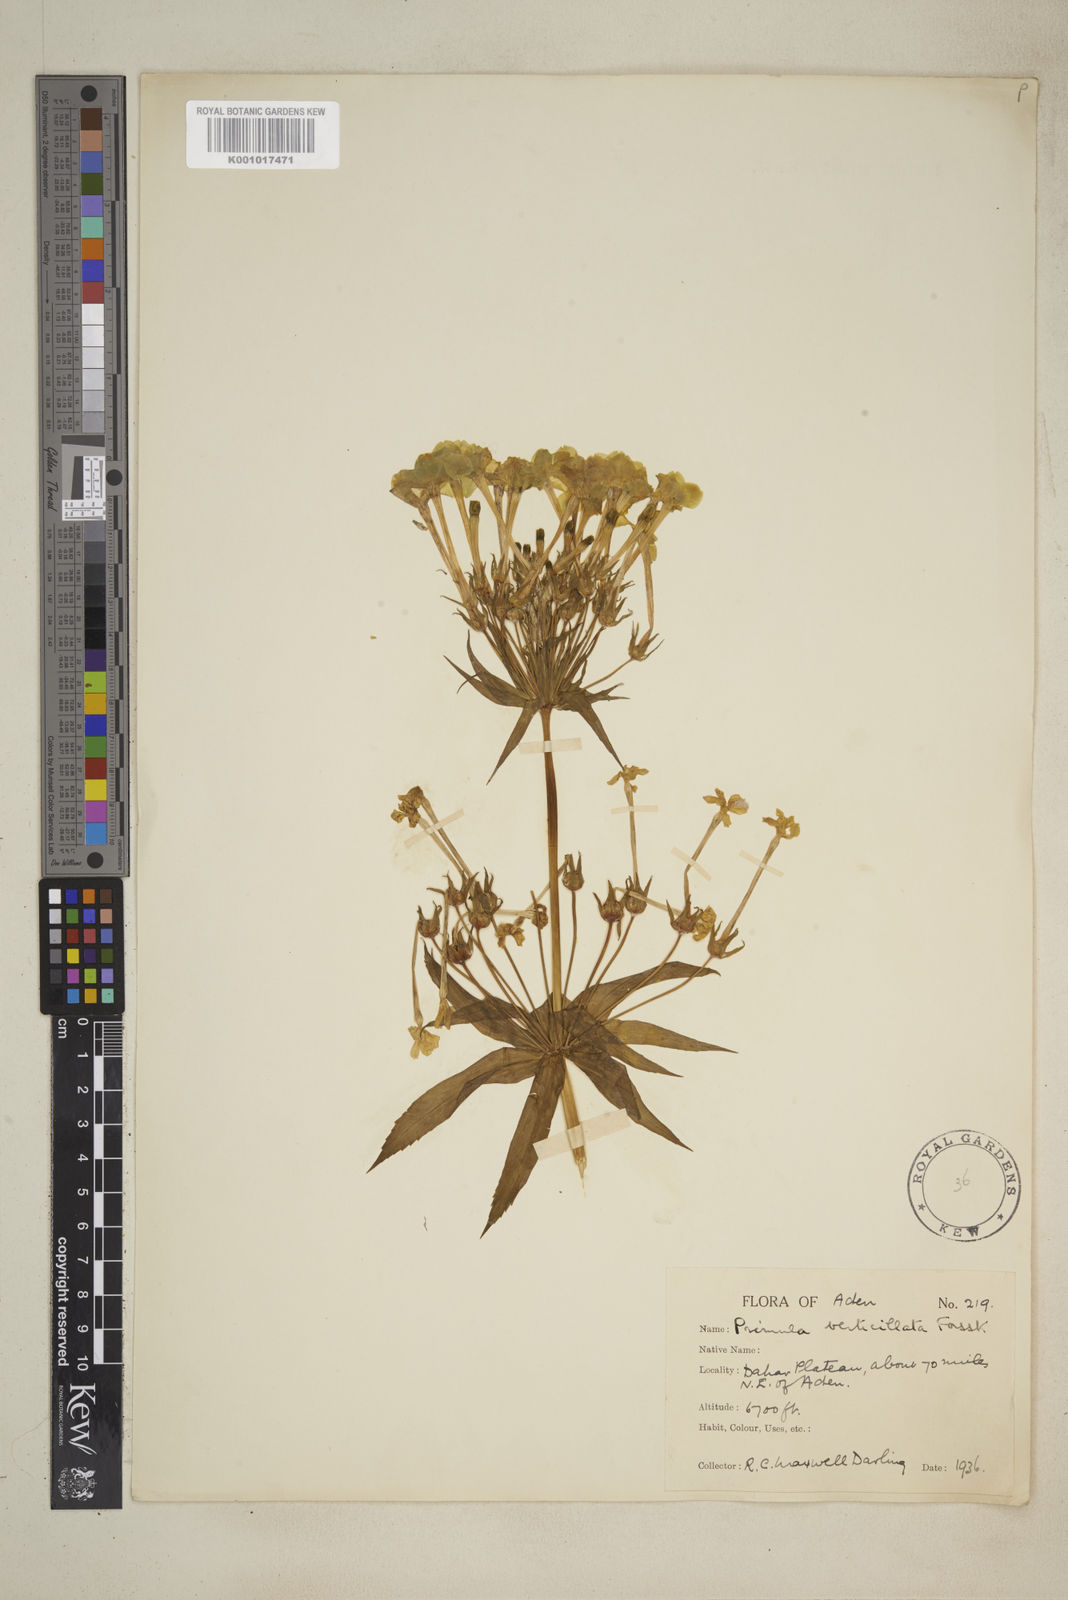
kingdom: Plantae
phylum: Tracheophyta
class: Magnoliopsida
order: Ericales
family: Primulaceae
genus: Evotrochis
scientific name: Evotrochis verticillata
